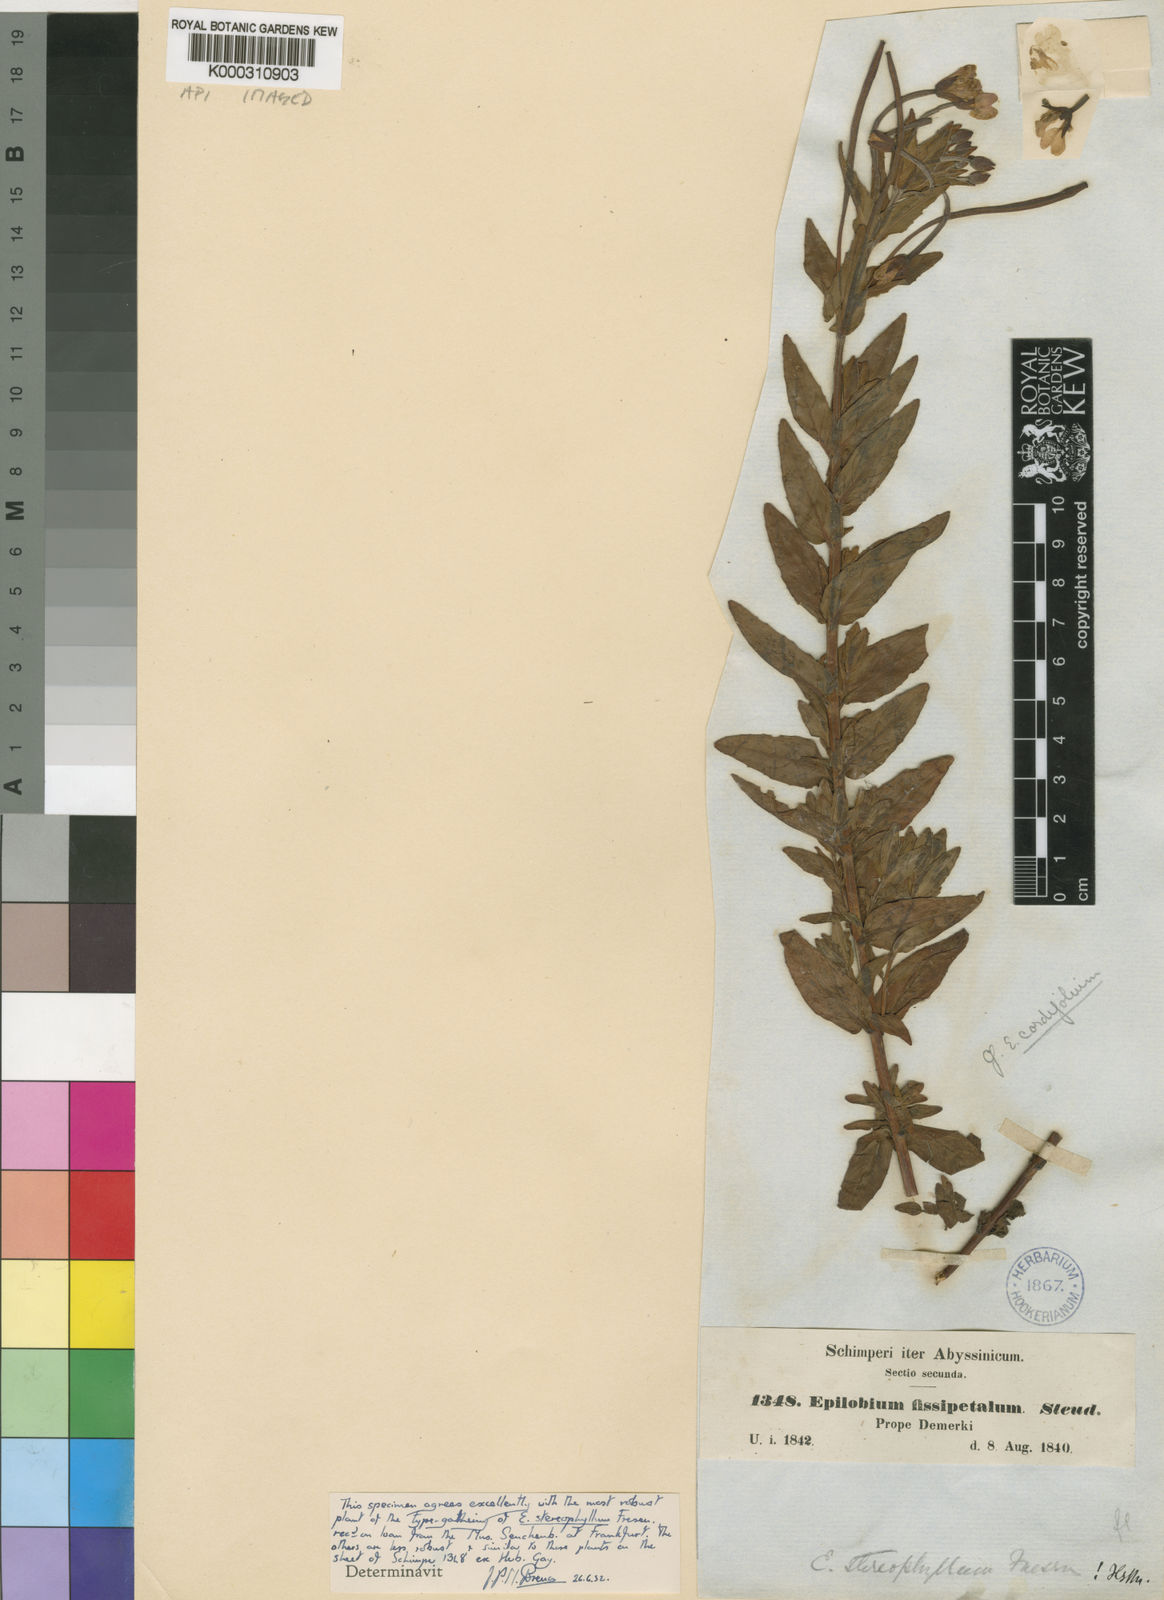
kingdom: Plantae
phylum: Tracheophyta
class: Magnoliopsida
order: Myrtales
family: Onagraceae
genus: Epilobium
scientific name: Epilobium stereophyllum
